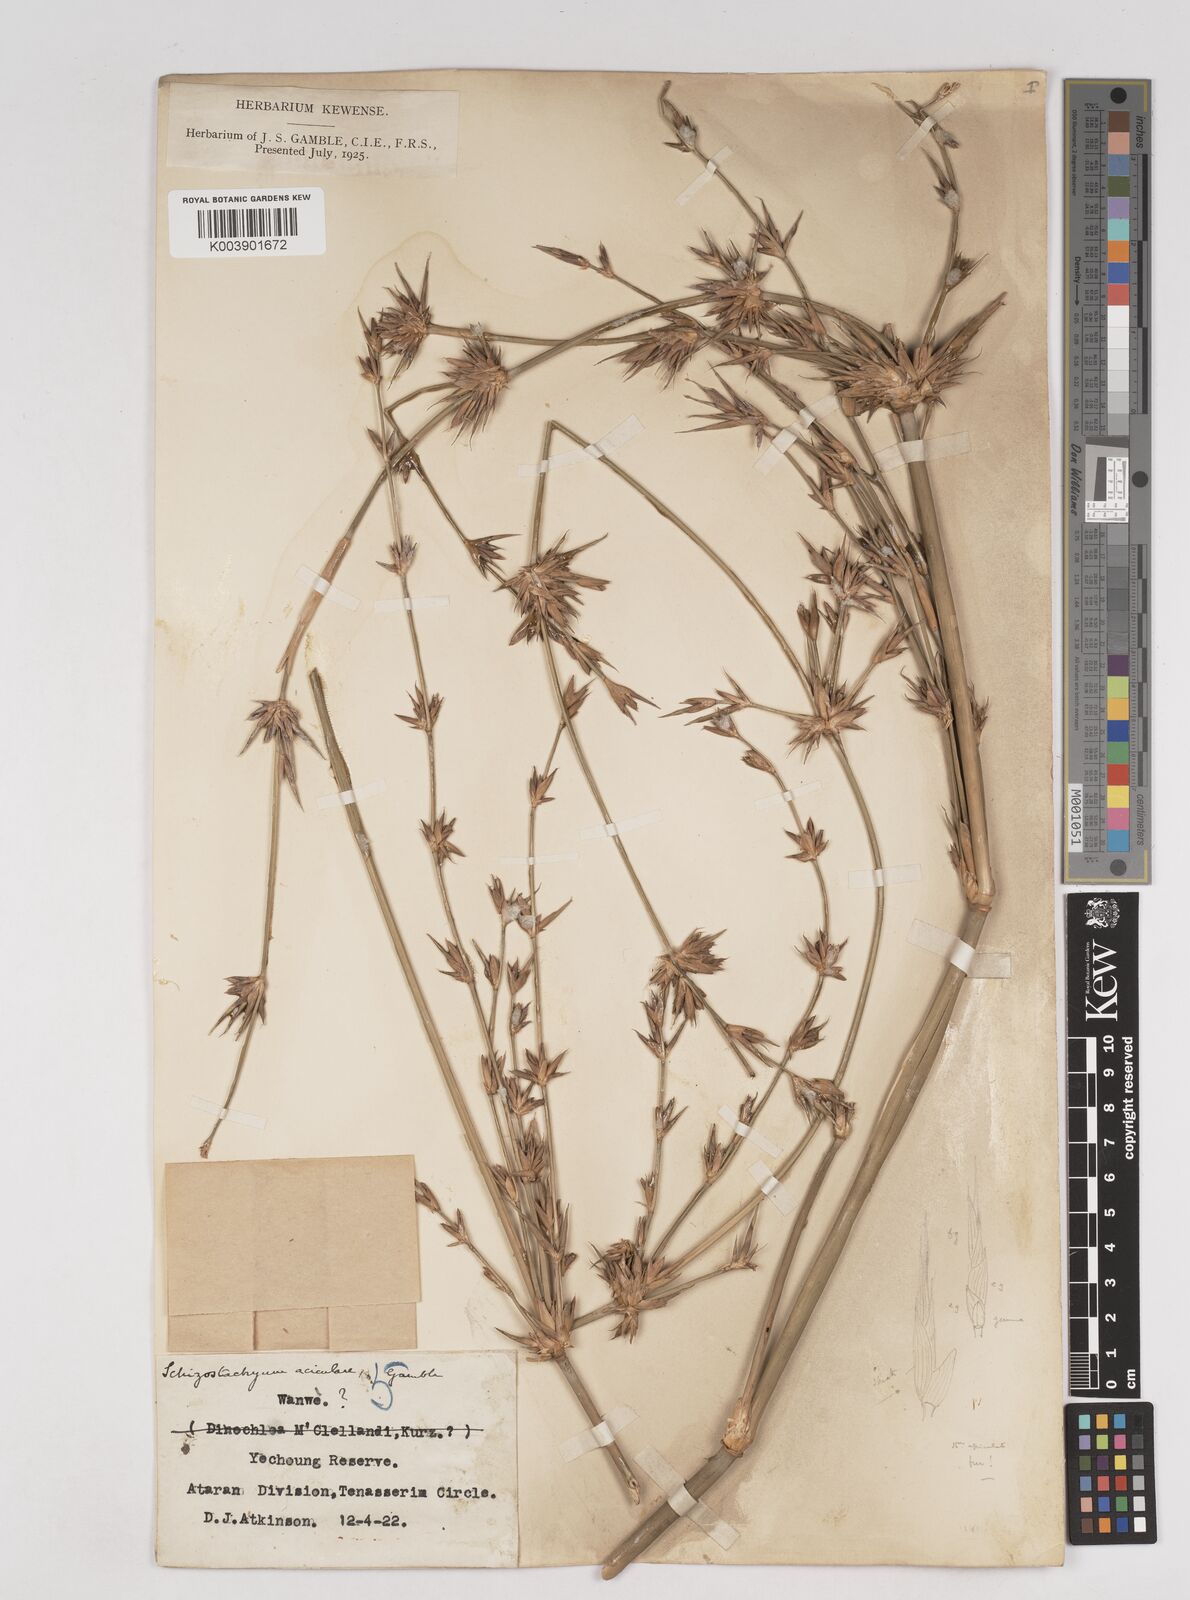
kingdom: Plantae
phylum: Tracheophyta
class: Liliopsida
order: Poales
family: Poaceae
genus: Schizostachyum
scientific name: Schizostachyum aciculare
